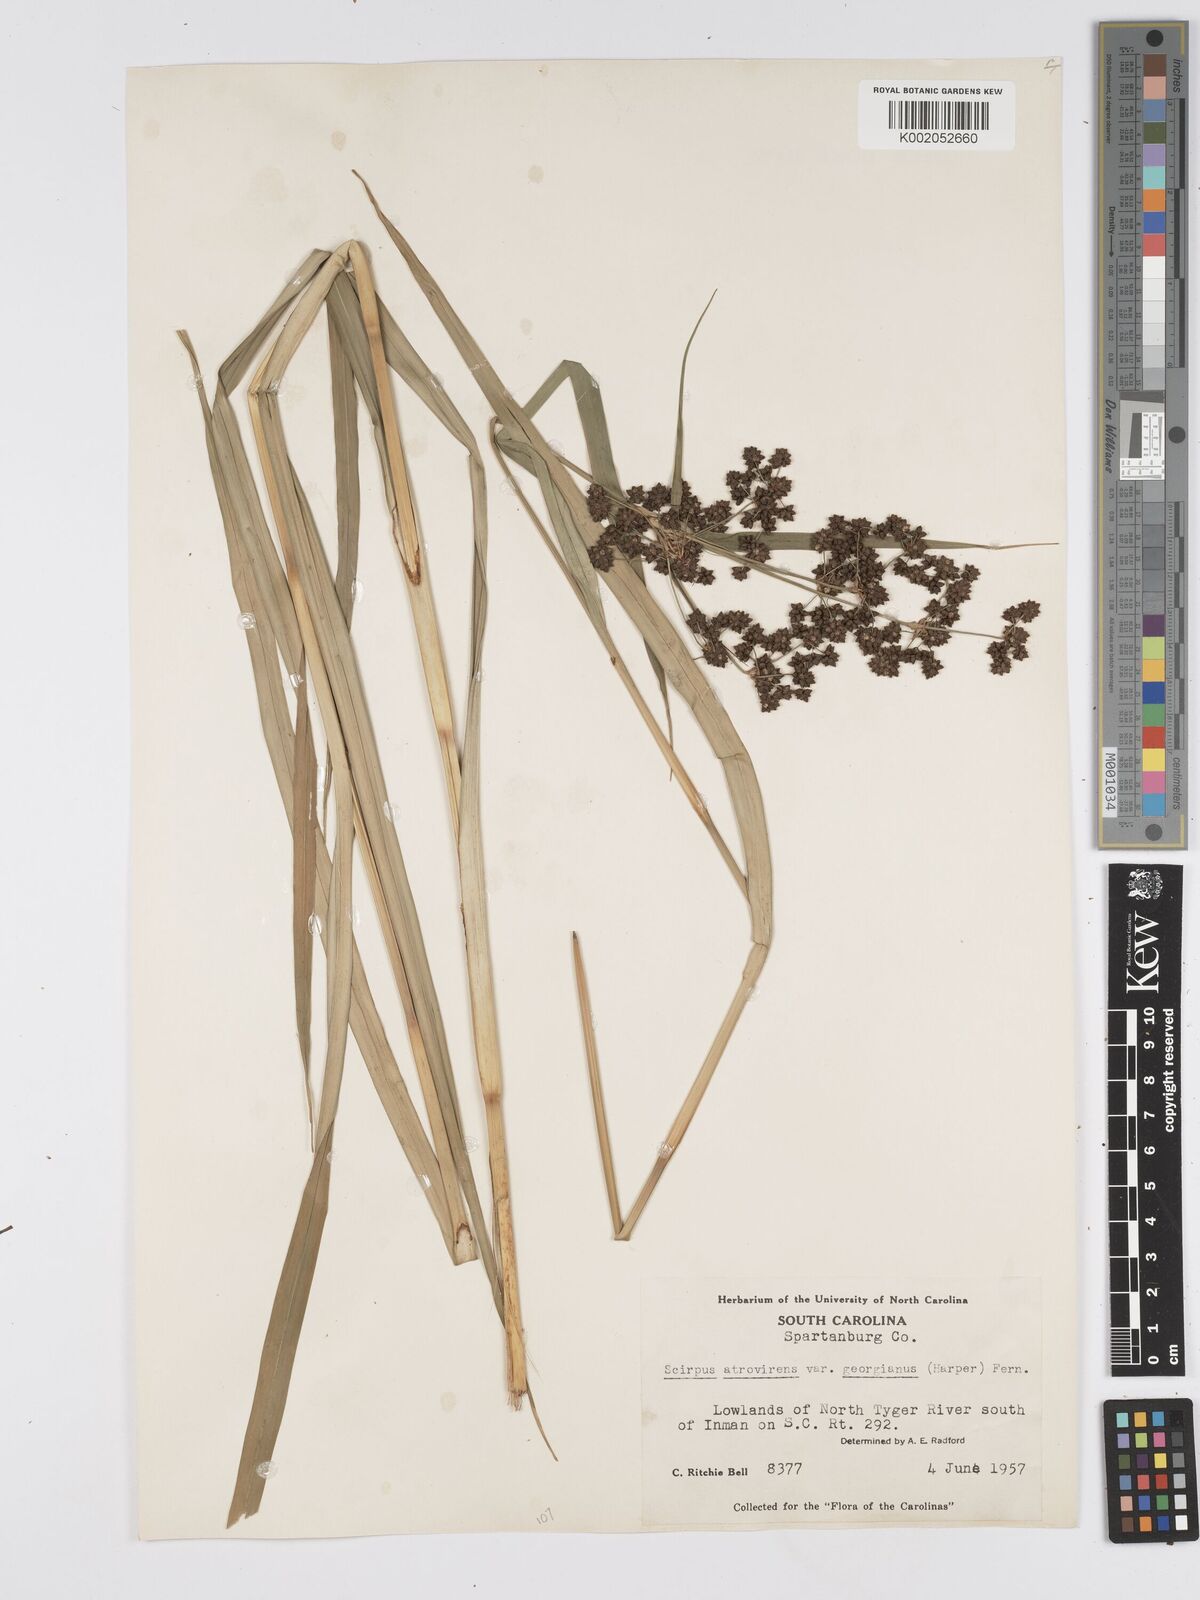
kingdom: Plantae
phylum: Tracheophyta
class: Liliopsida
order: Poales
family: Cyperaceae
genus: Scirpus
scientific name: Scirpus atrovirens
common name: Black bulrush
